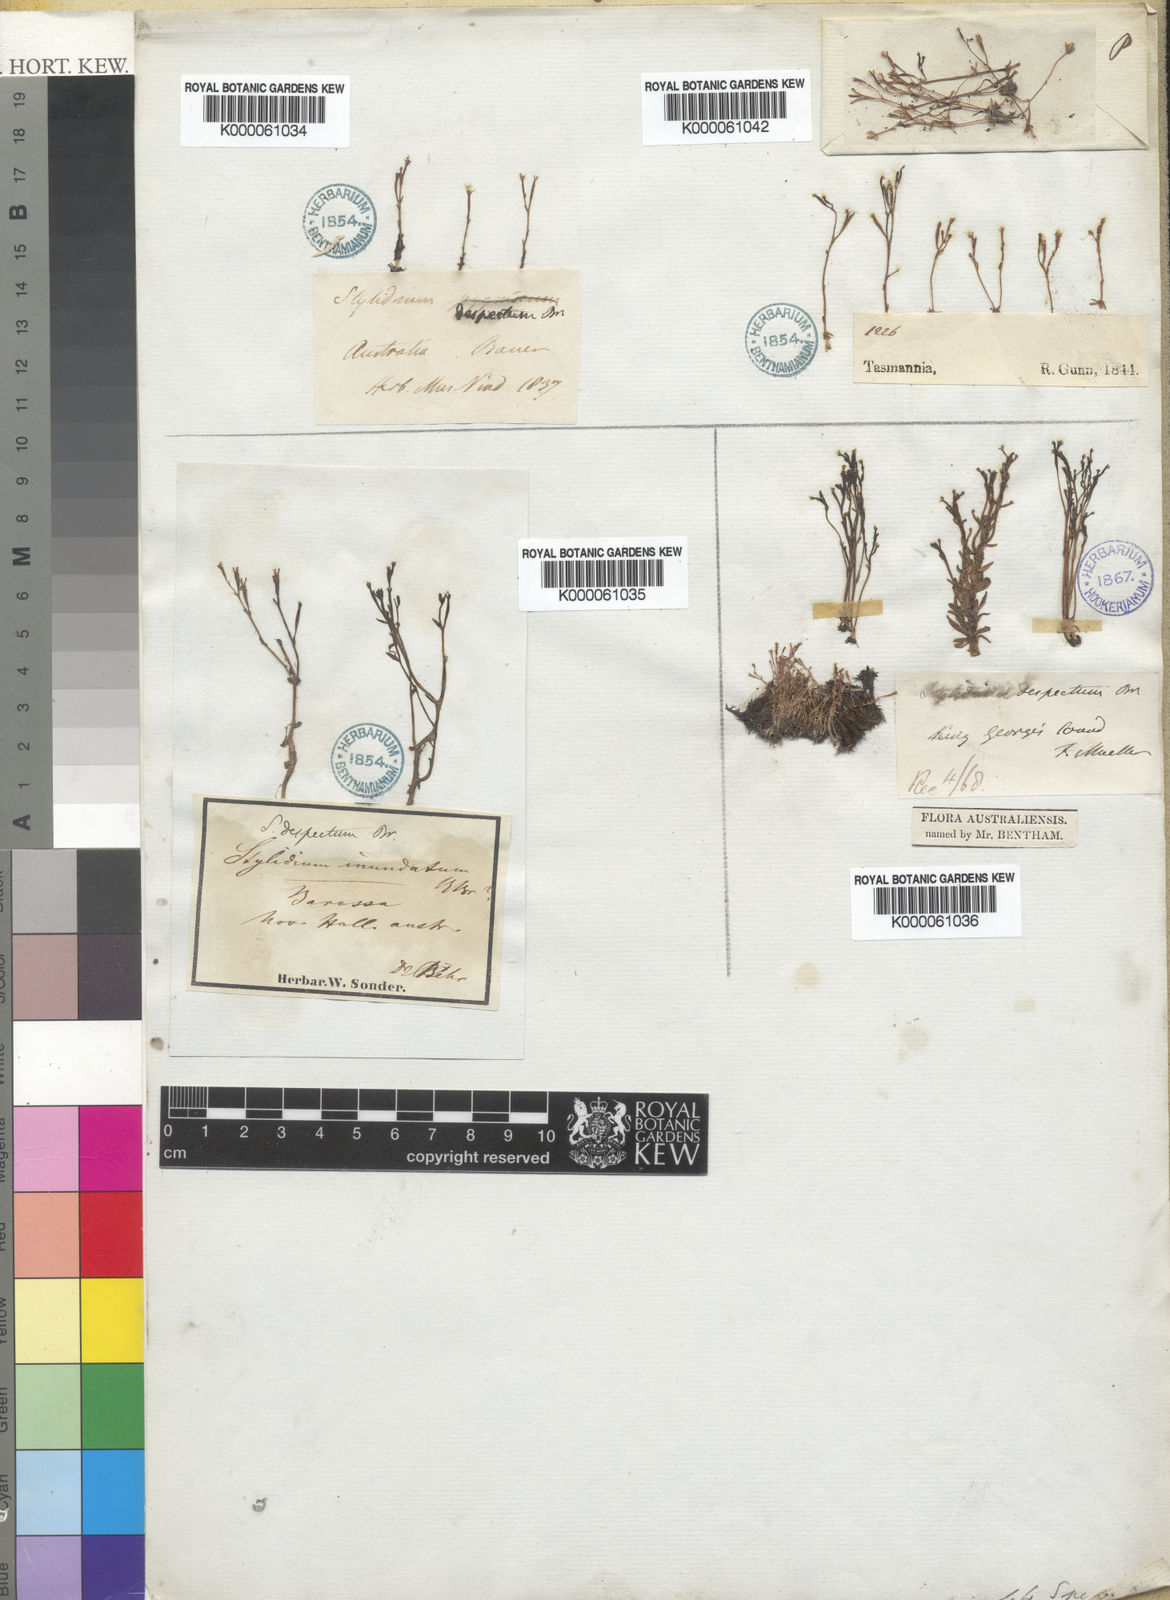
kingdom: Plantae
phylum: Tracheophyta
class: Magnoliopsida
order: Asterales
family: Stylidiaceae
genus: Stylidium
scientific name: Stylidium despectum
